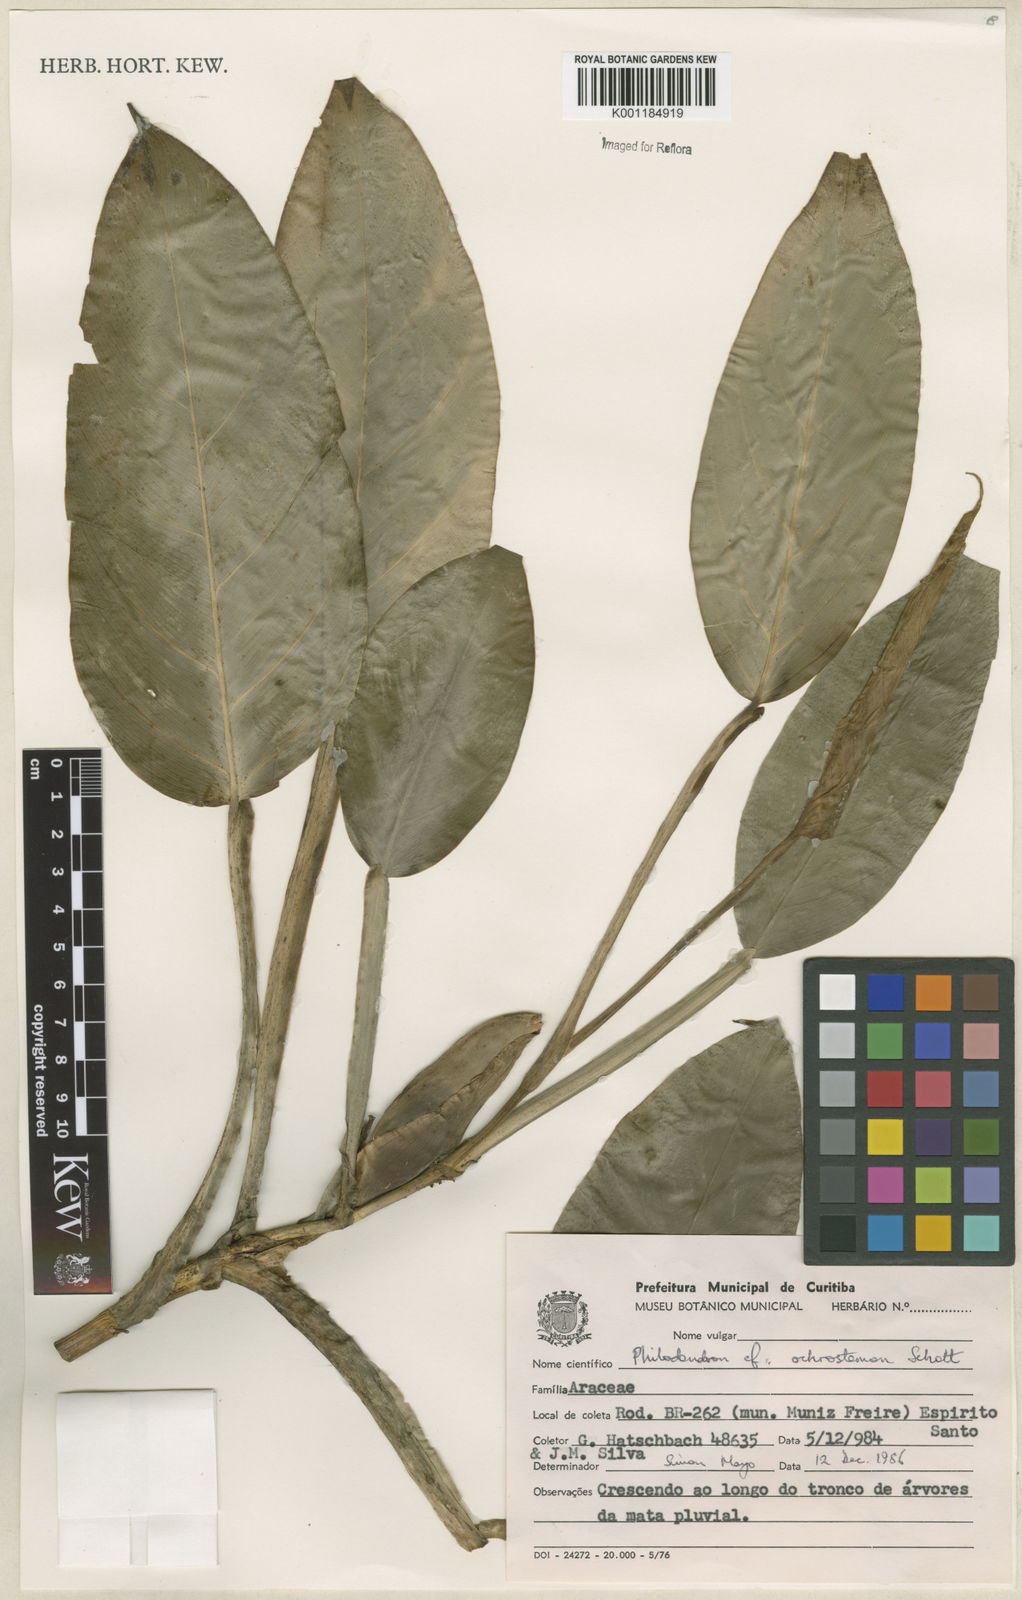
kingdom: Plantae
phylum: Tracheophyta
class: Liliopsida
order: Alismatales
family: Araceae
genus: Philodendron
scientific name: Philodendron ochrostemon
